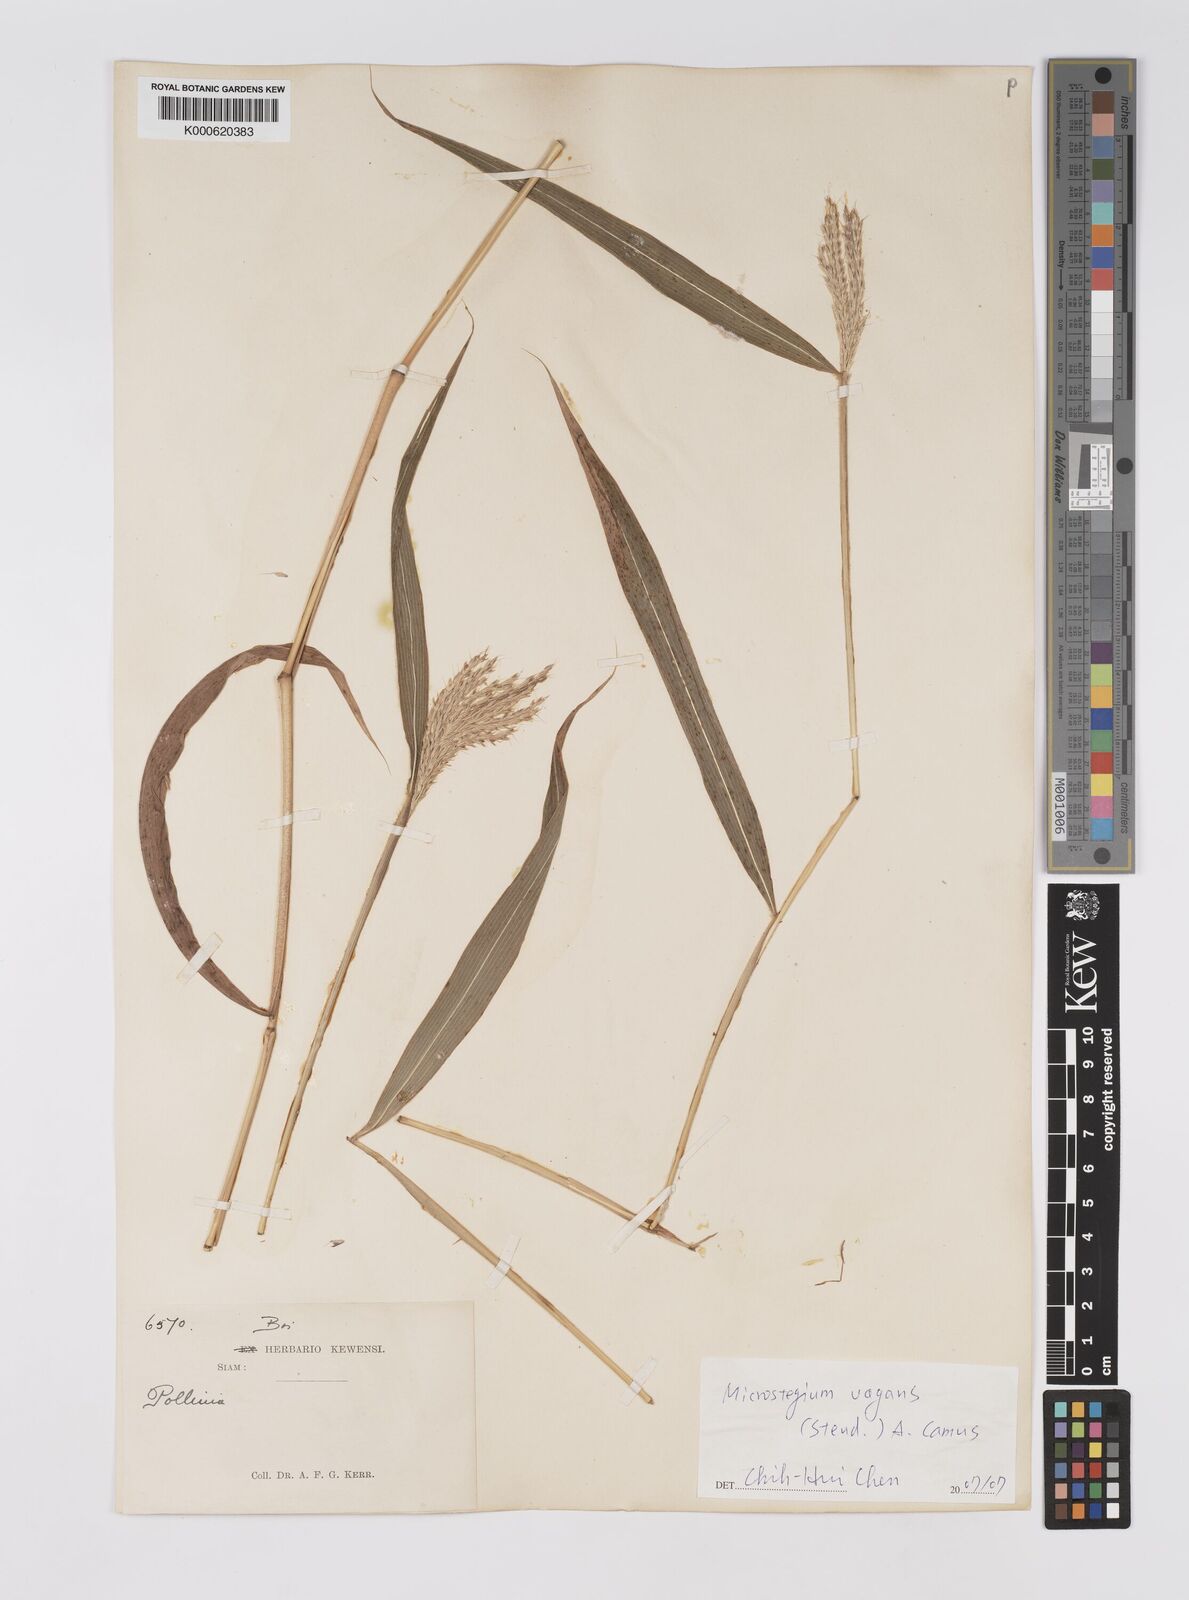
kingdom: Plantae
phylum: Tracheophyta
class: Liliopsida
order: Poales
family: Poaceae
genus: Microstegium
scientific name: Microstegium fasciculatum
